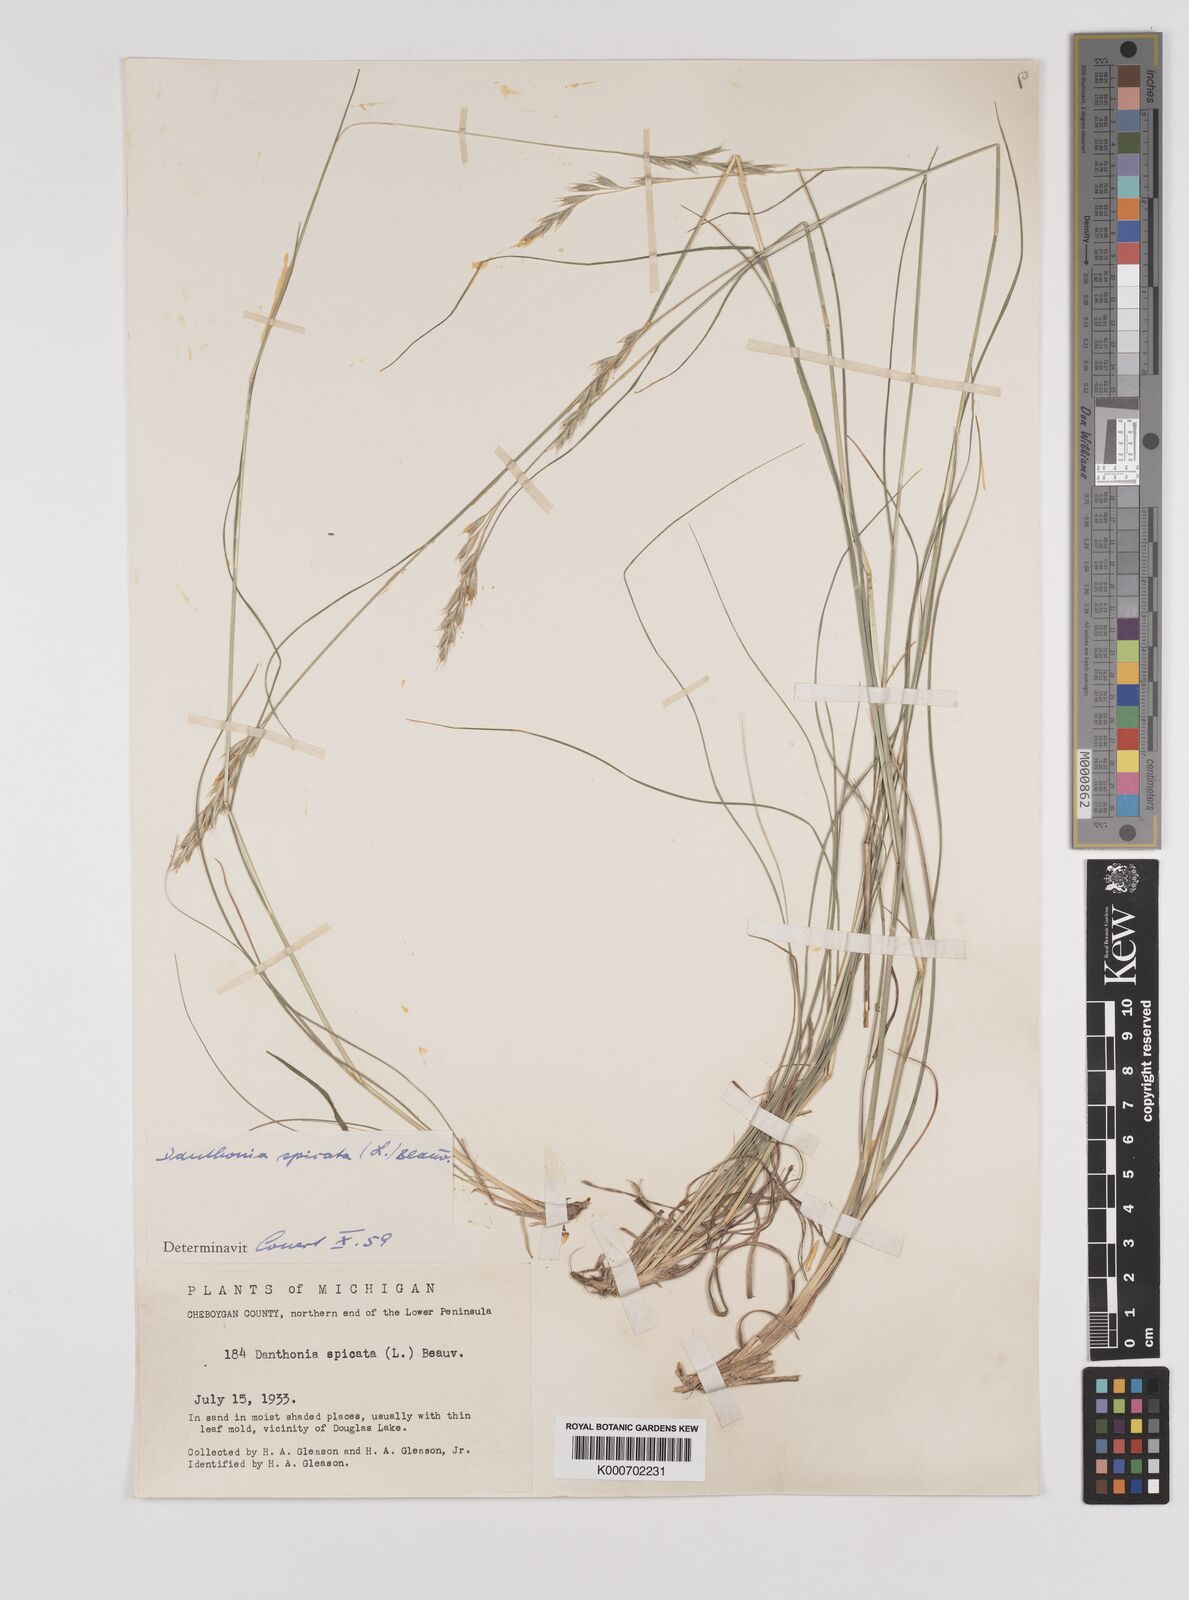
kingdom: Plantae
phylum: Tracheophyta
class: Liliopsida
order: Poales
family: Poaceae
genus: Danthonia
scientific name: Danthonia spicata
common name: Common wild oatgrass
